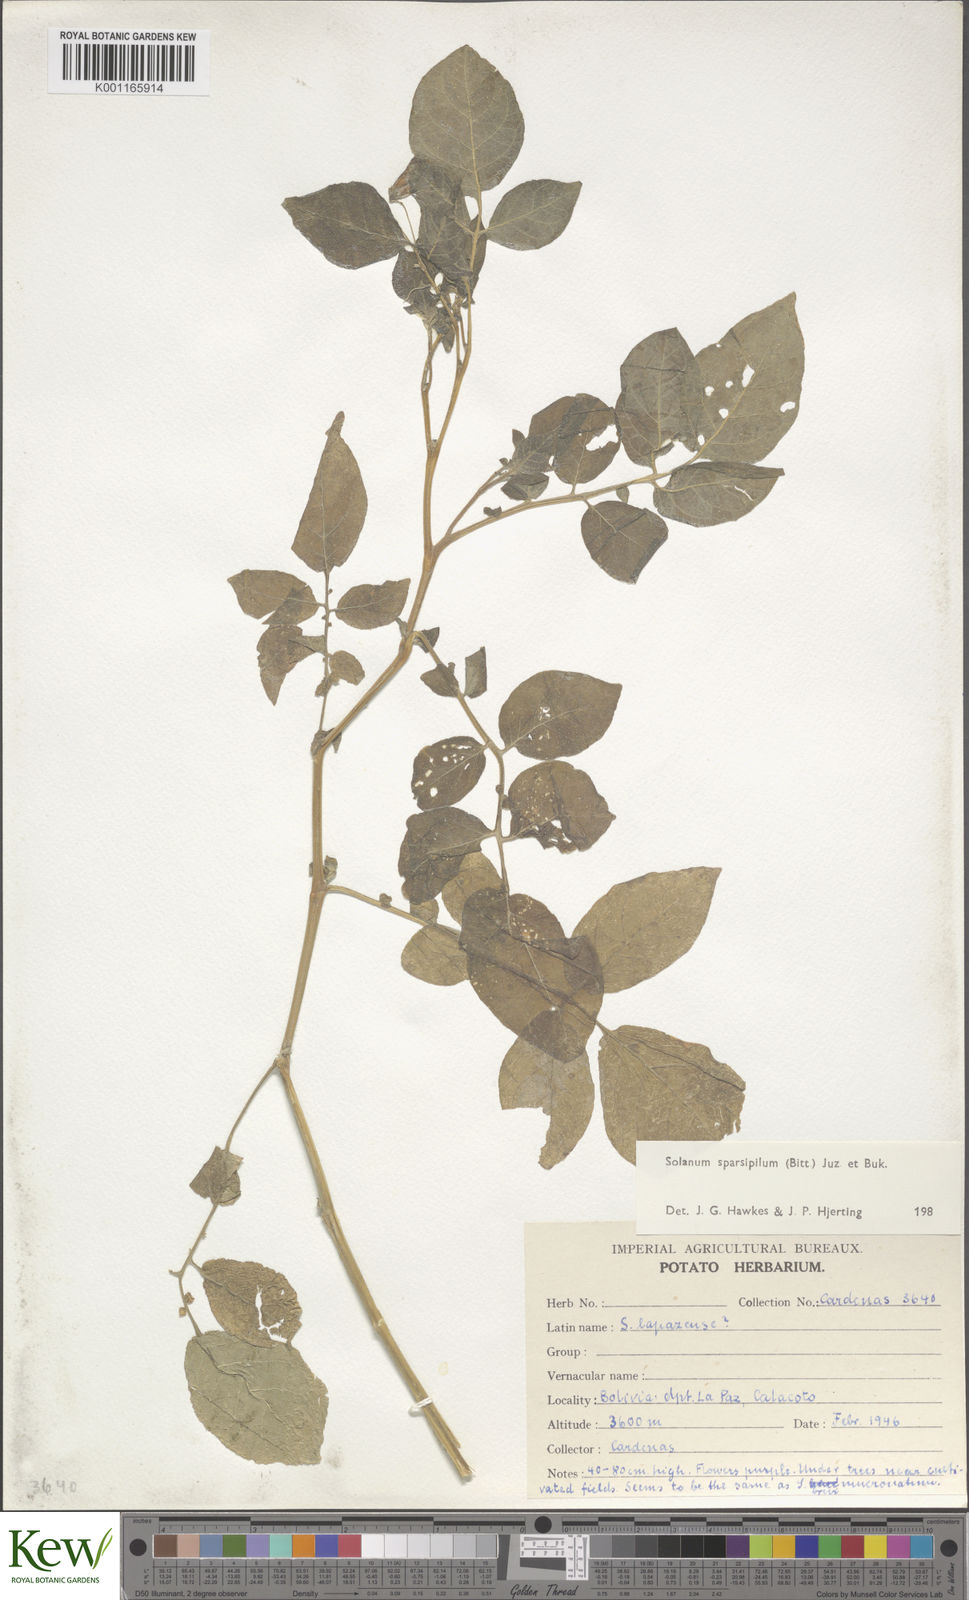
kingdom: Plantae
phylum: Tracheophyta
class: Magnoliopsida
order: Solanales
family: Solanaceae
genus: Solanum
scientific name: Solanum brevicaule
